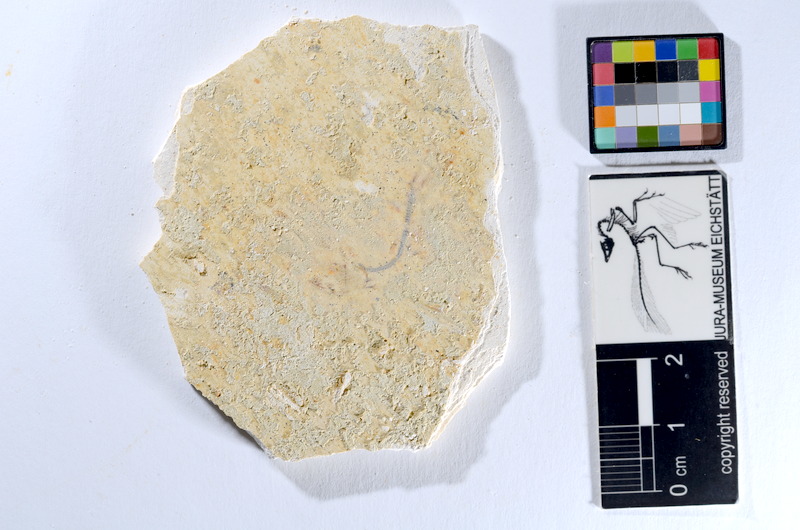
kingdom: Animalia
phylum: Chordata
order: Salmoniformes
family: Orthogonikleithridae
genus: Orthogonikleithrus
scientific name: Orthogonikleithrus hoelli
